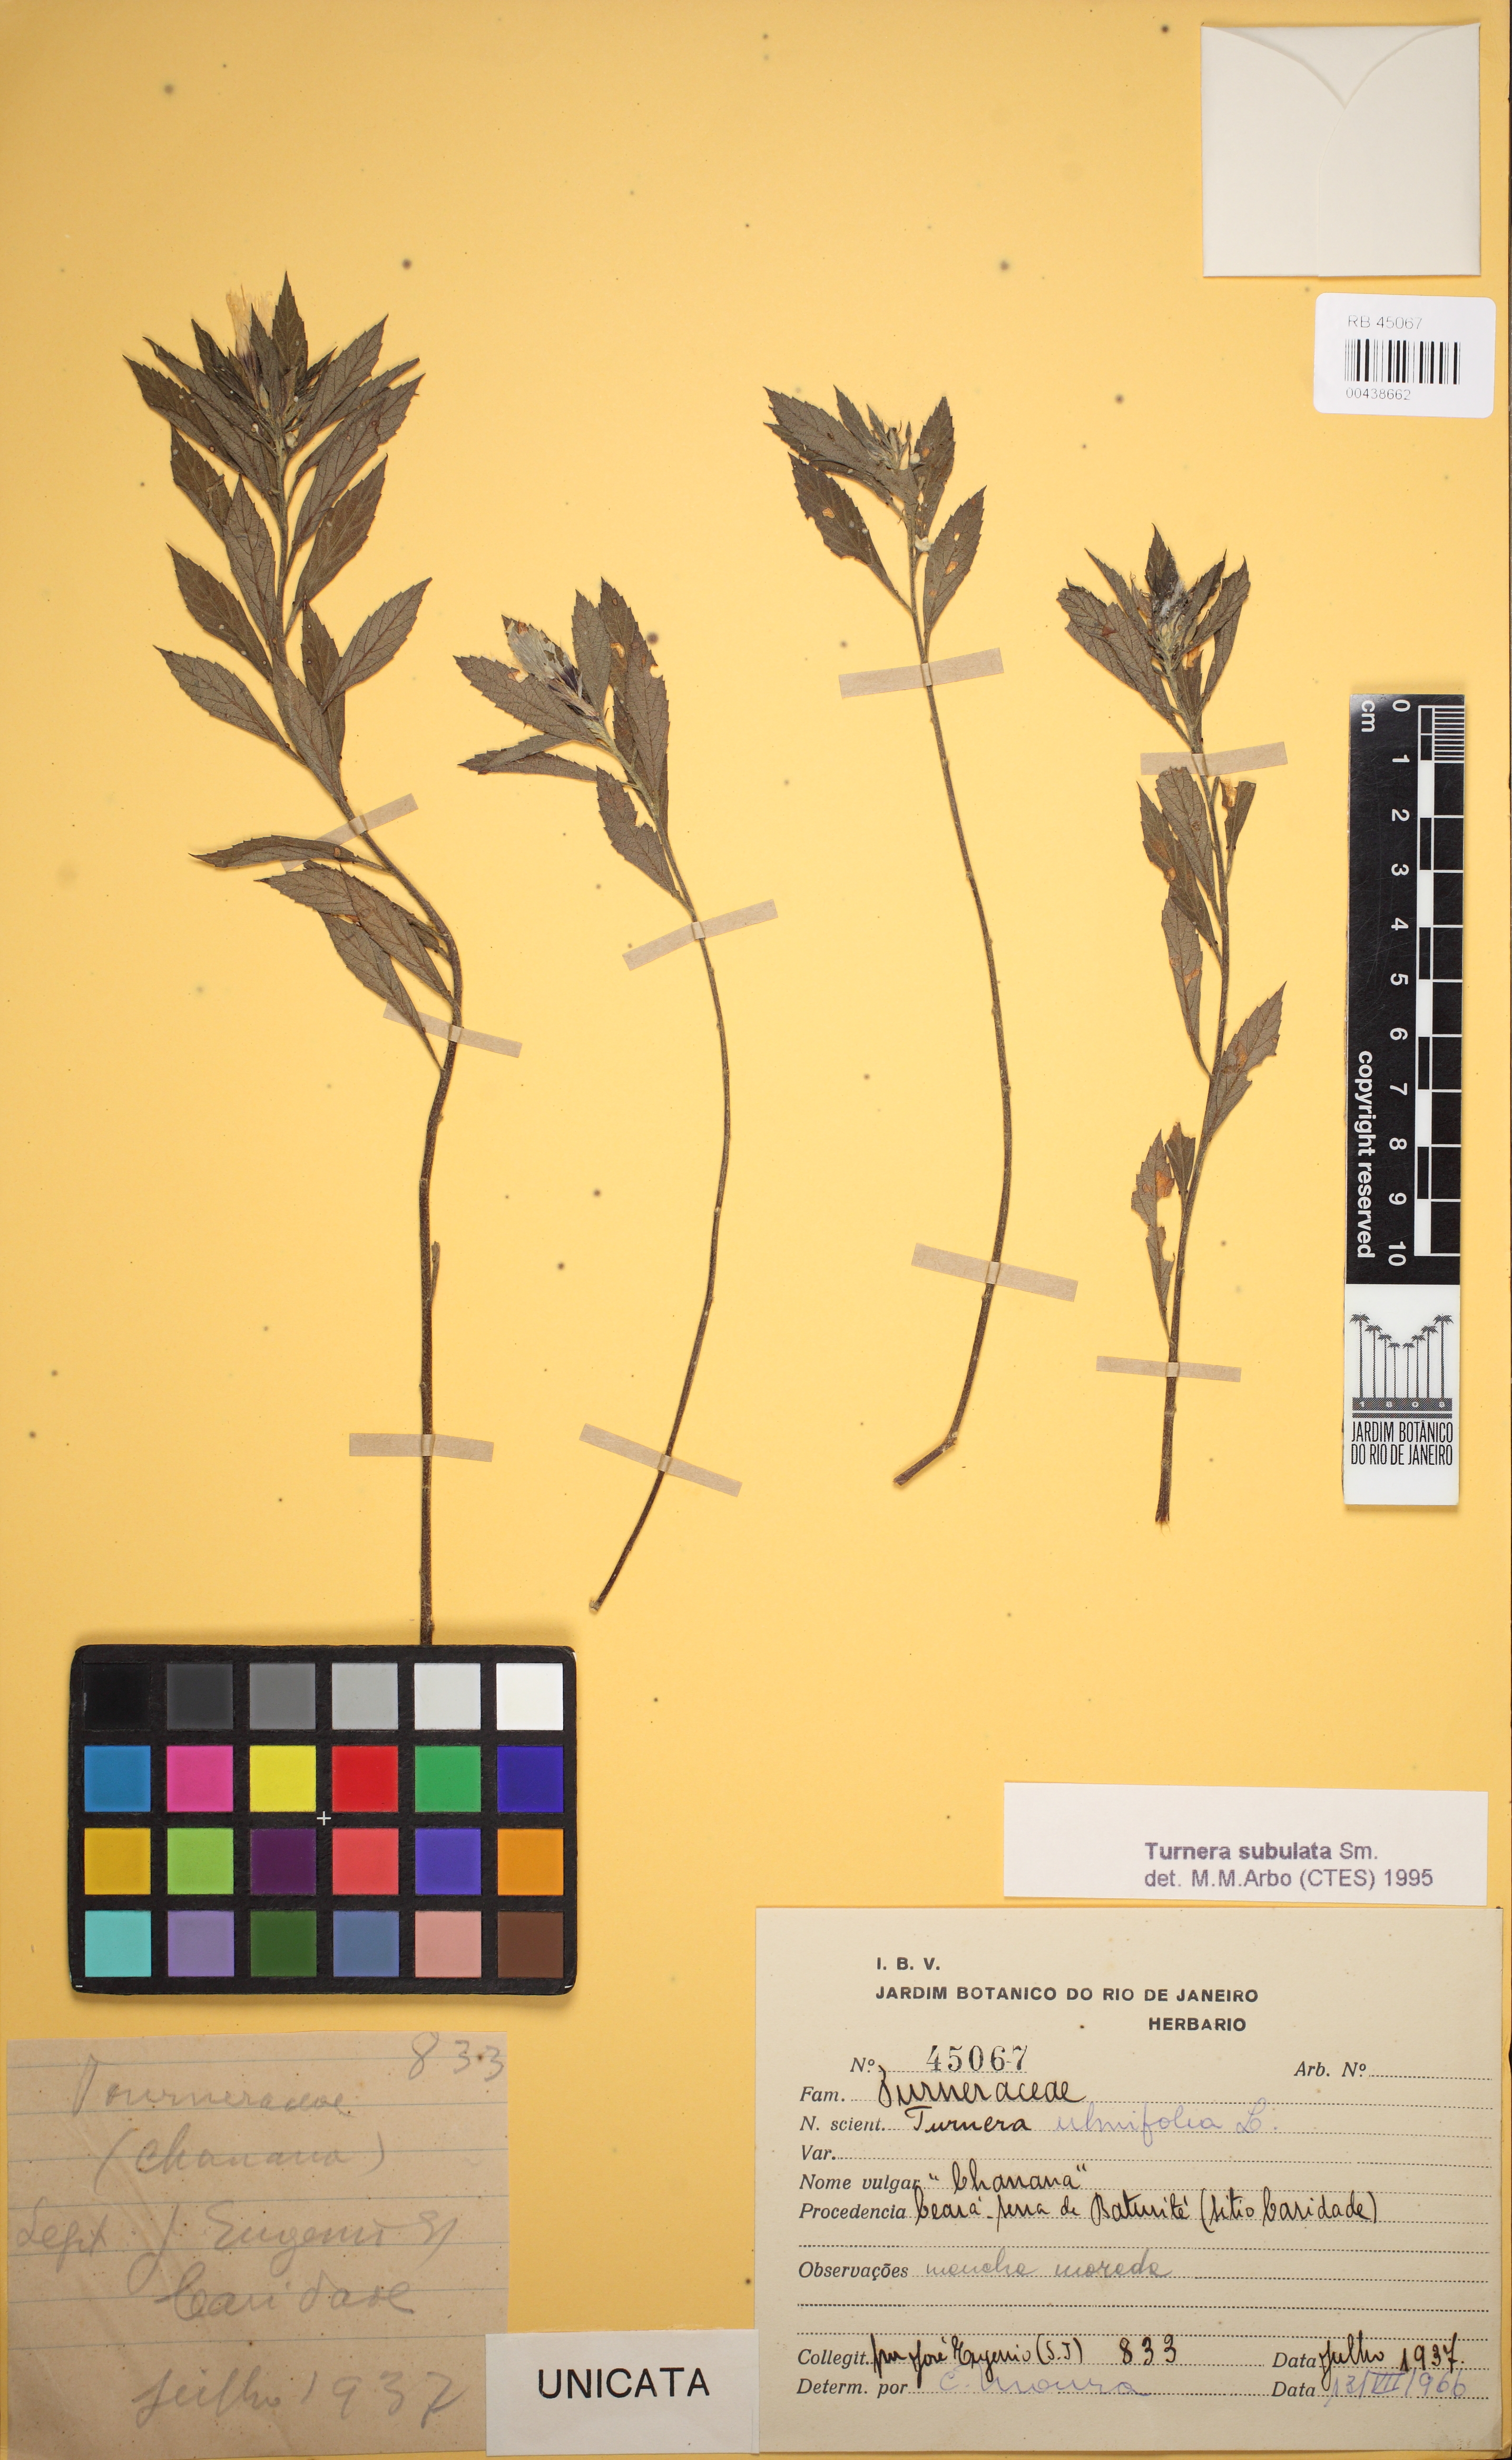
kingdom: Plantae
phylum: Tracheophyta
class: Magnoliopsida
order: Malpighiales
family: Turneraceae
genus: Turnera
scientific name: Turnera subulata
